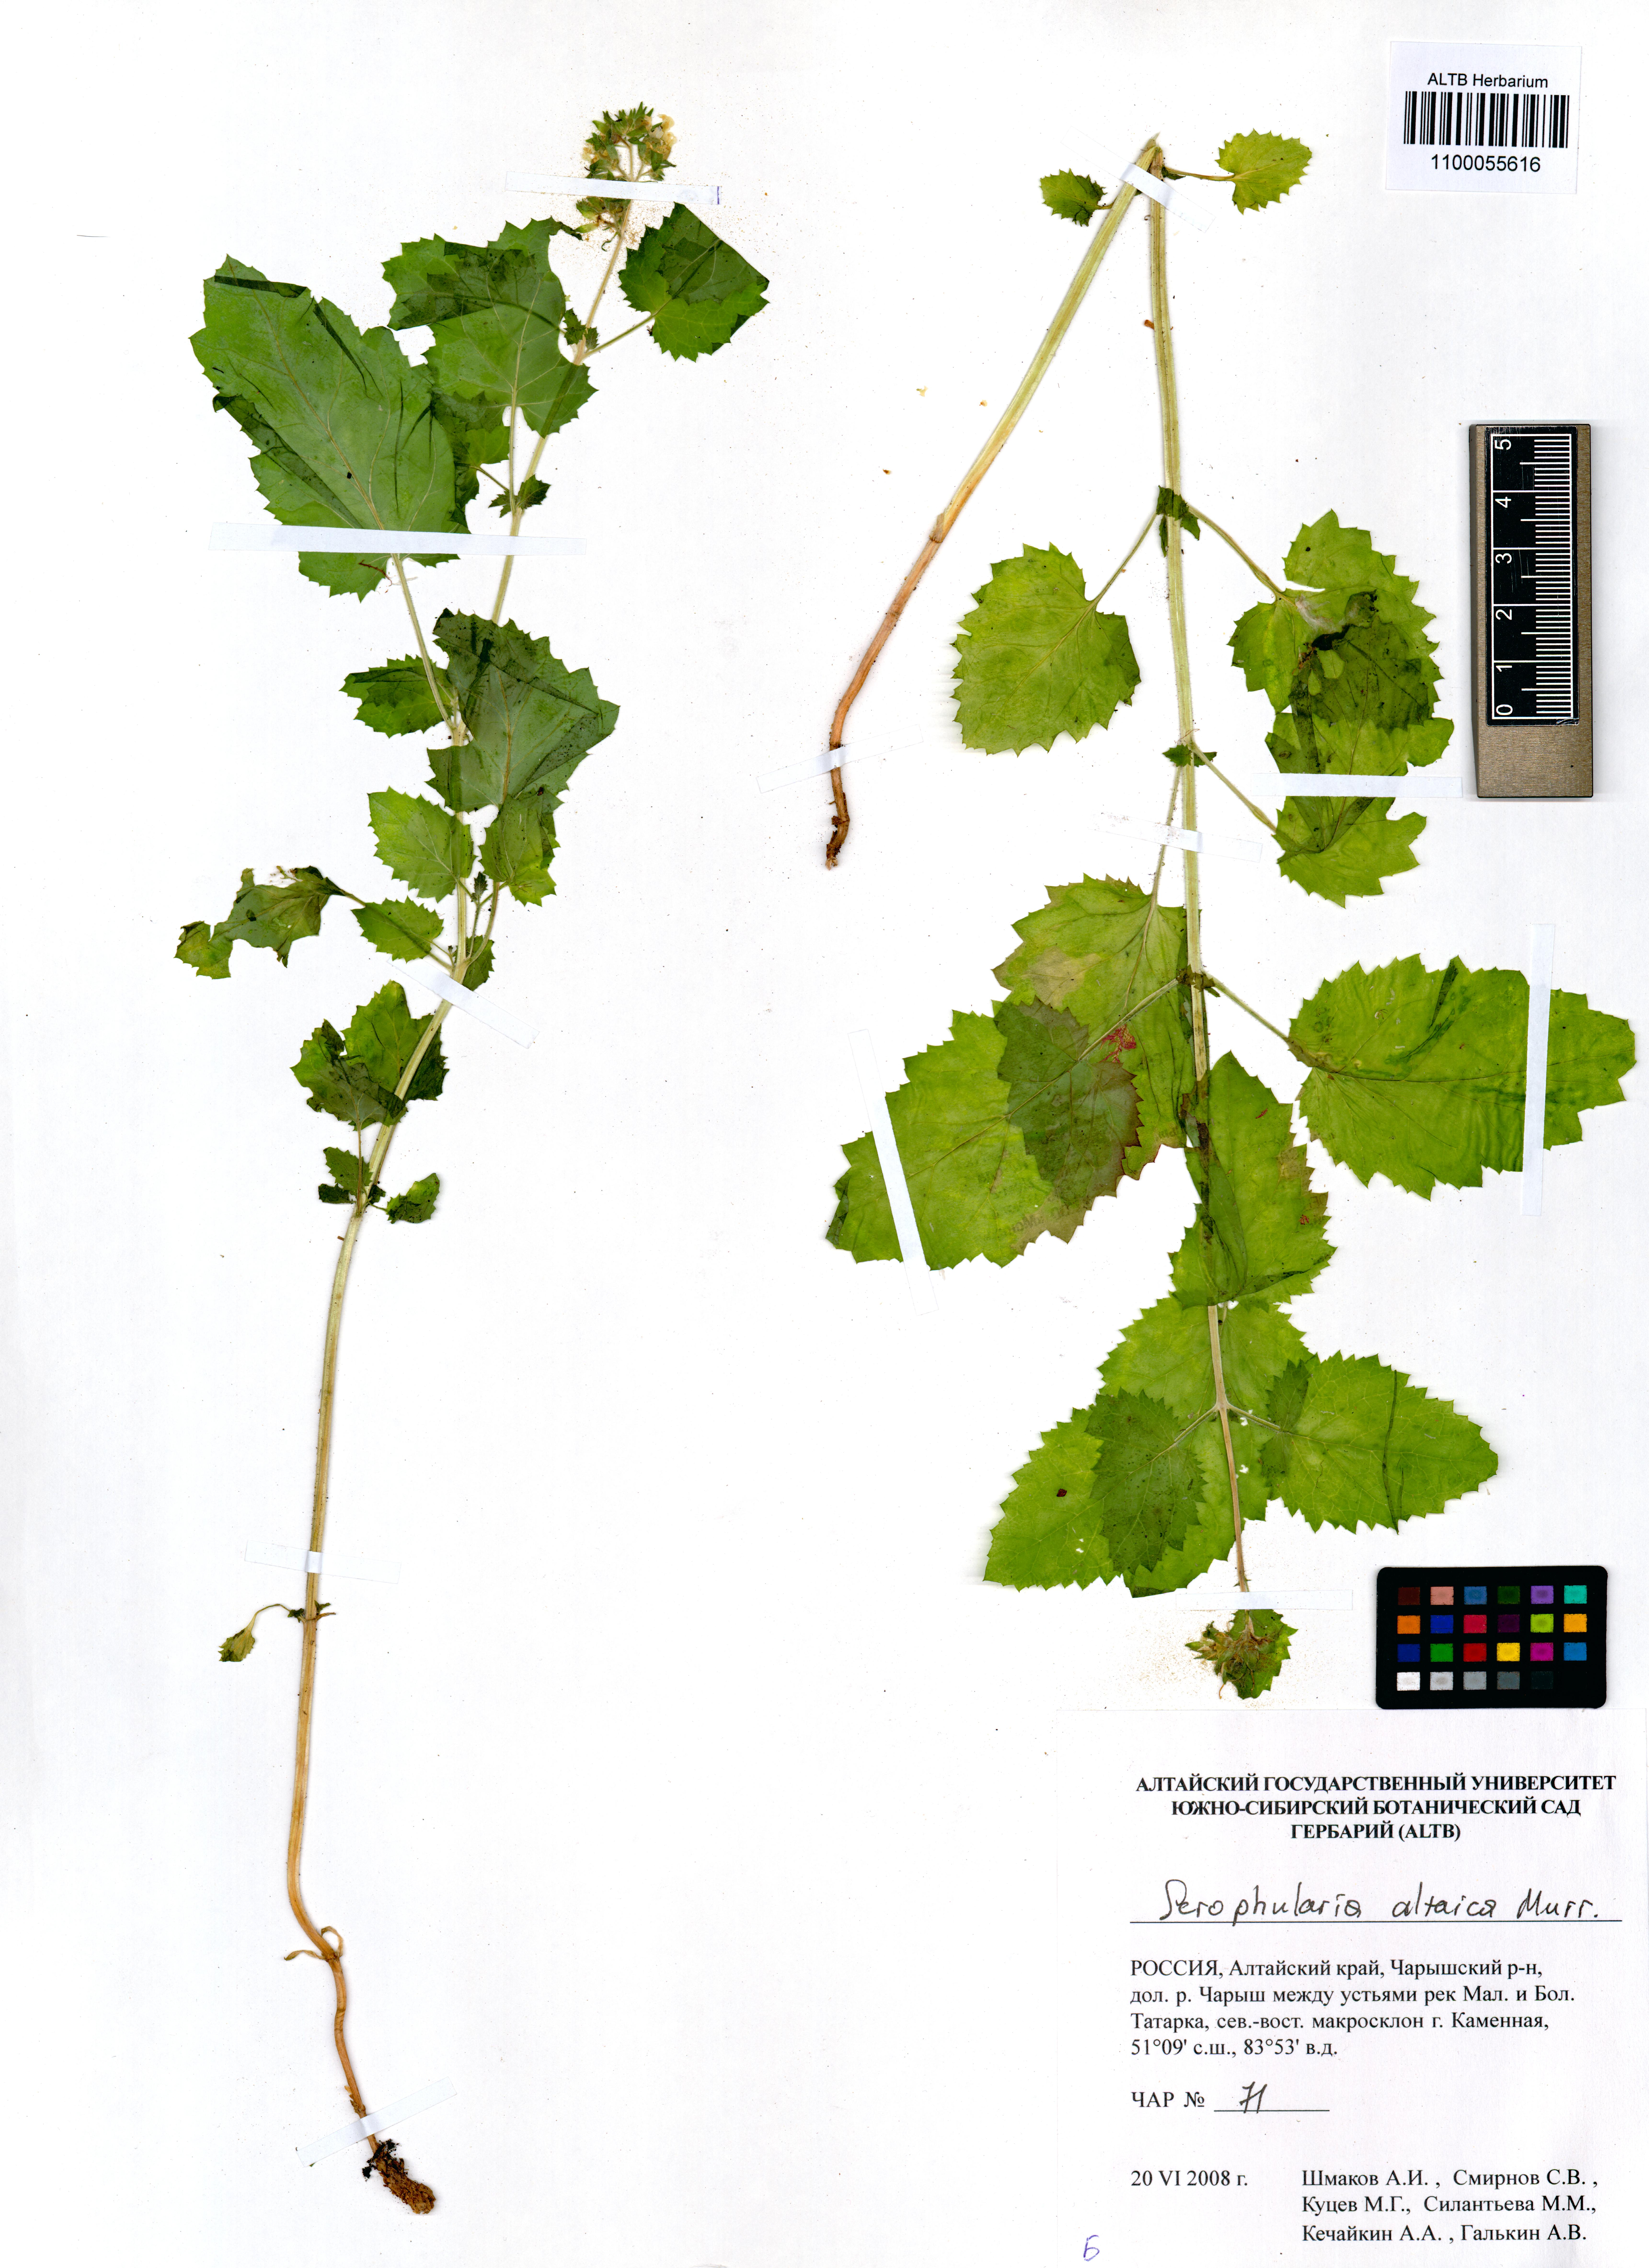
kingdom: Plantae
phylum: Tracheophyta
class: Magnoliopsida
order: Lamiales
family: Scrophulariaceae
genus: Scrophularia
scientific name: Scrophularia altaica
